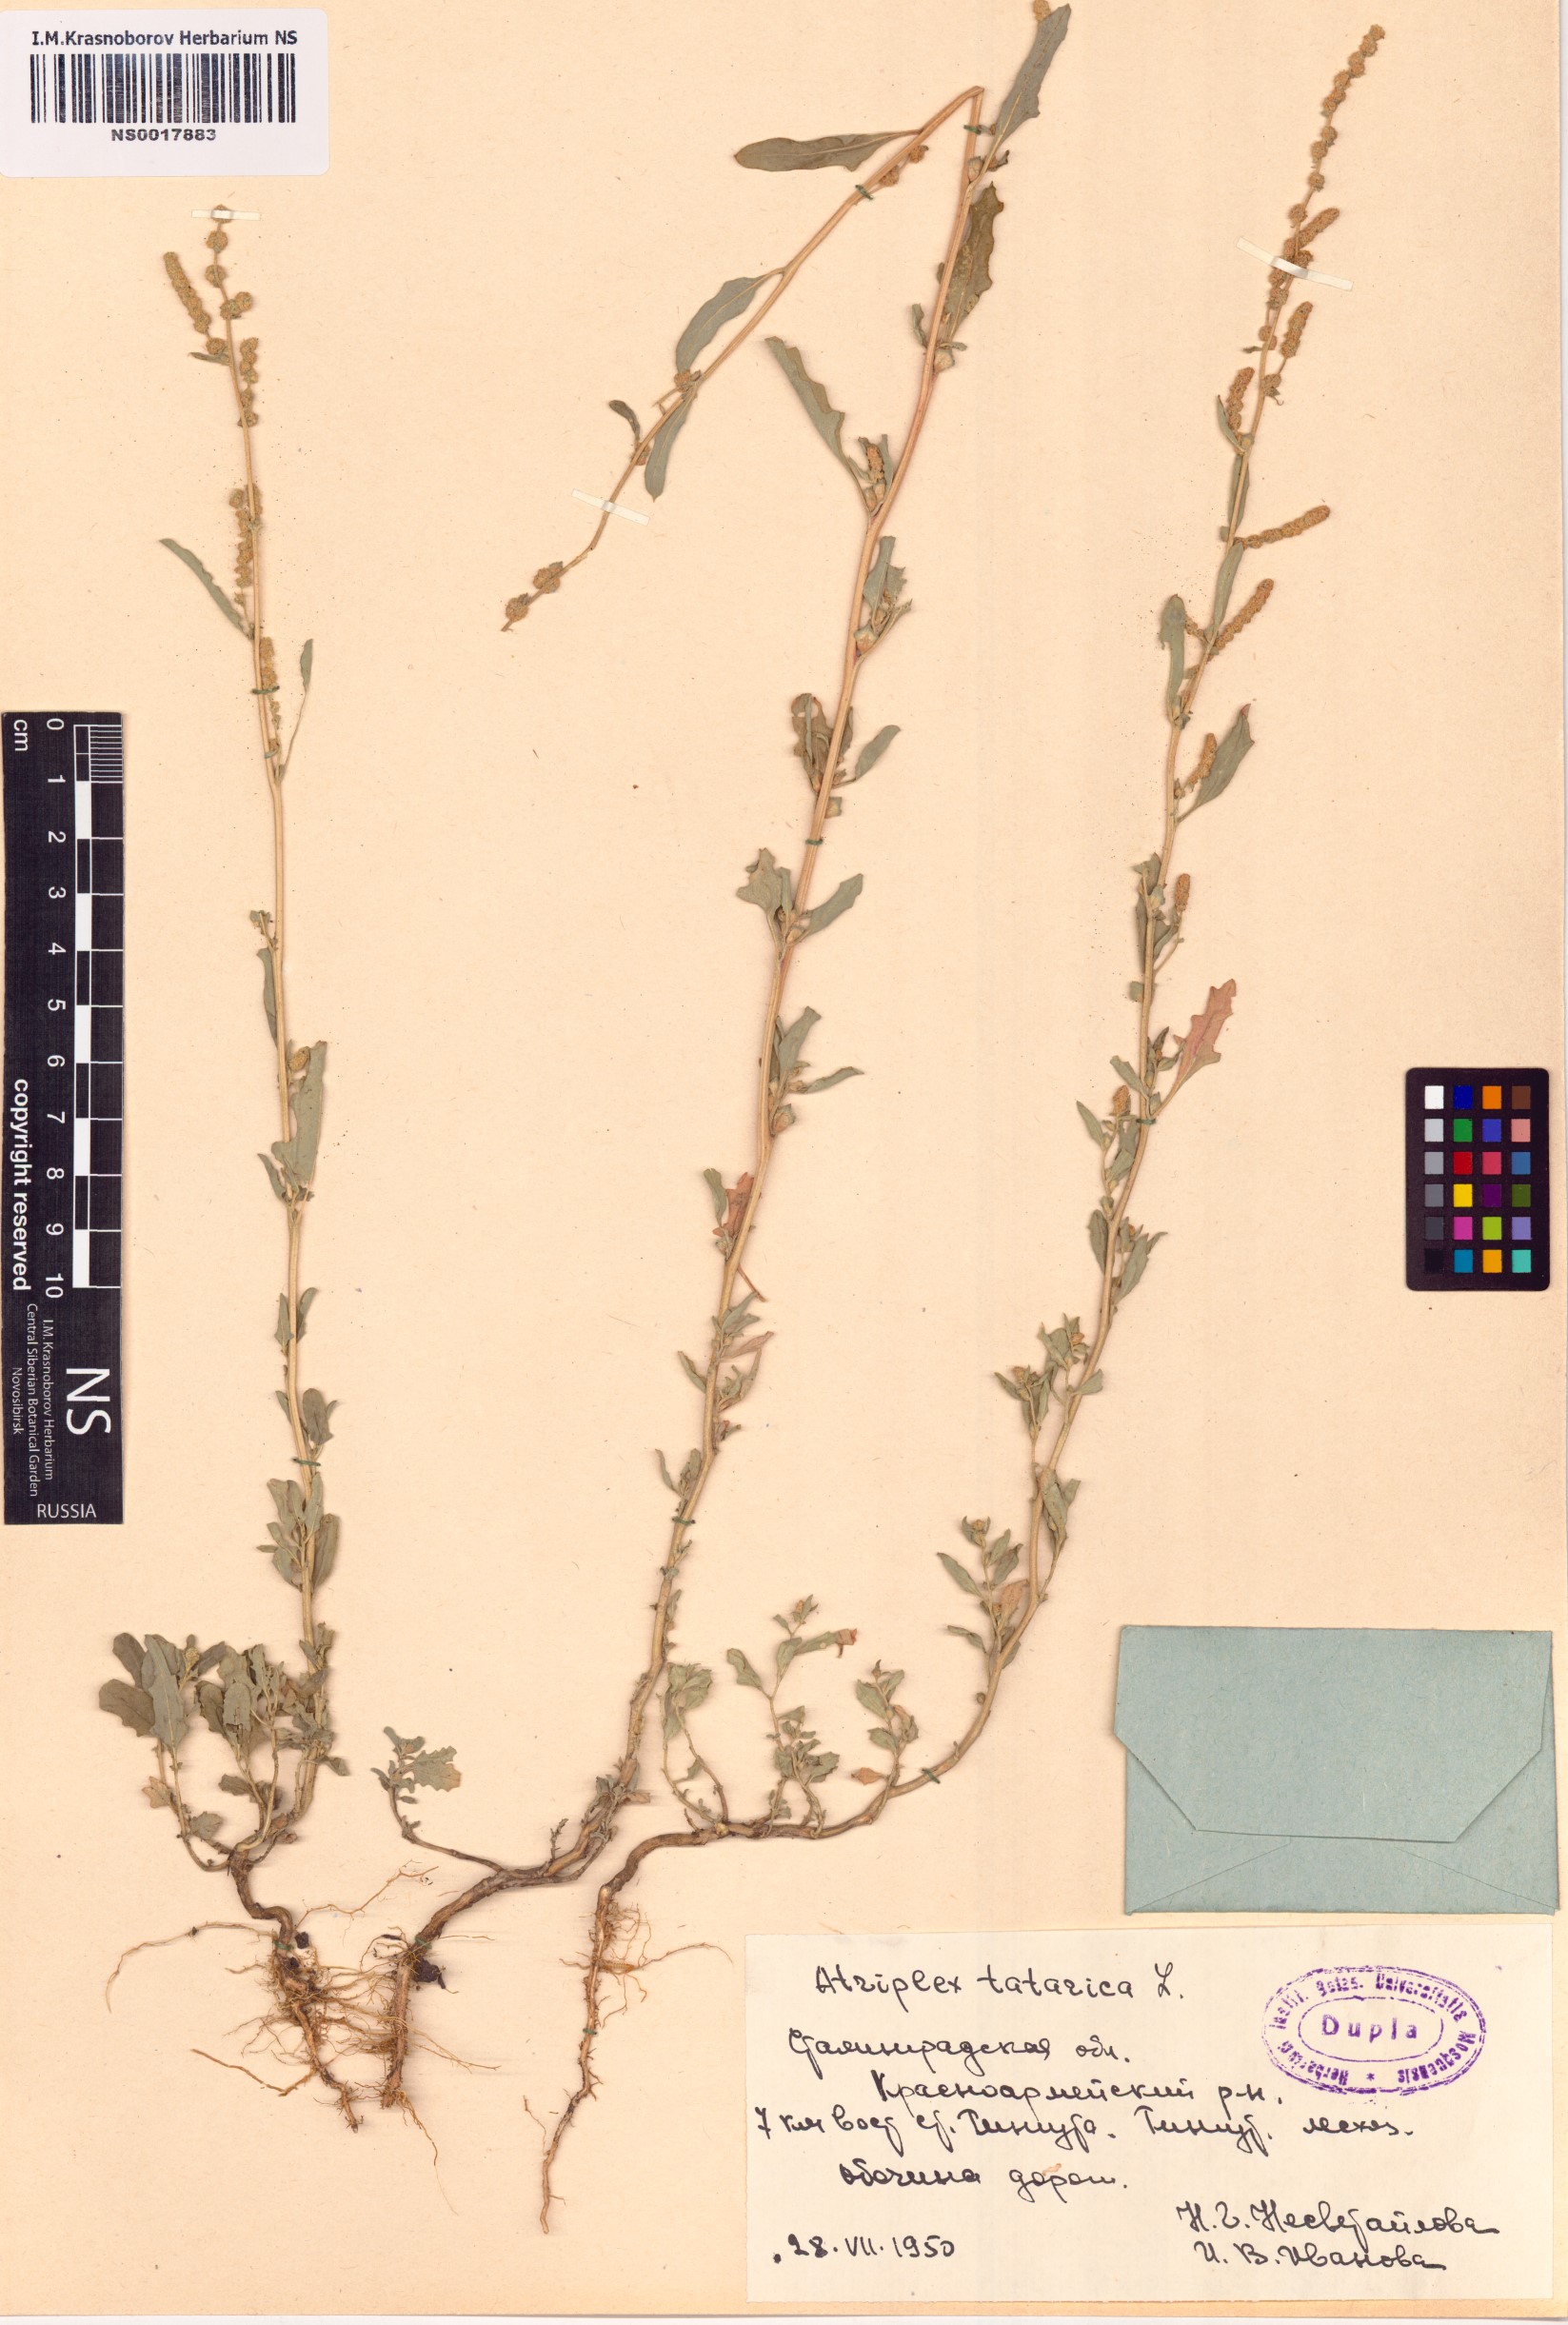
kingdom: Plantae
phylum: Tracheophyta
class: Magnoliopsida
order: Caryophyllales
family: Amaranthaceae
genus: Atriplex
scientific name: Atriplex tatarica
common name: Tatarian orache
